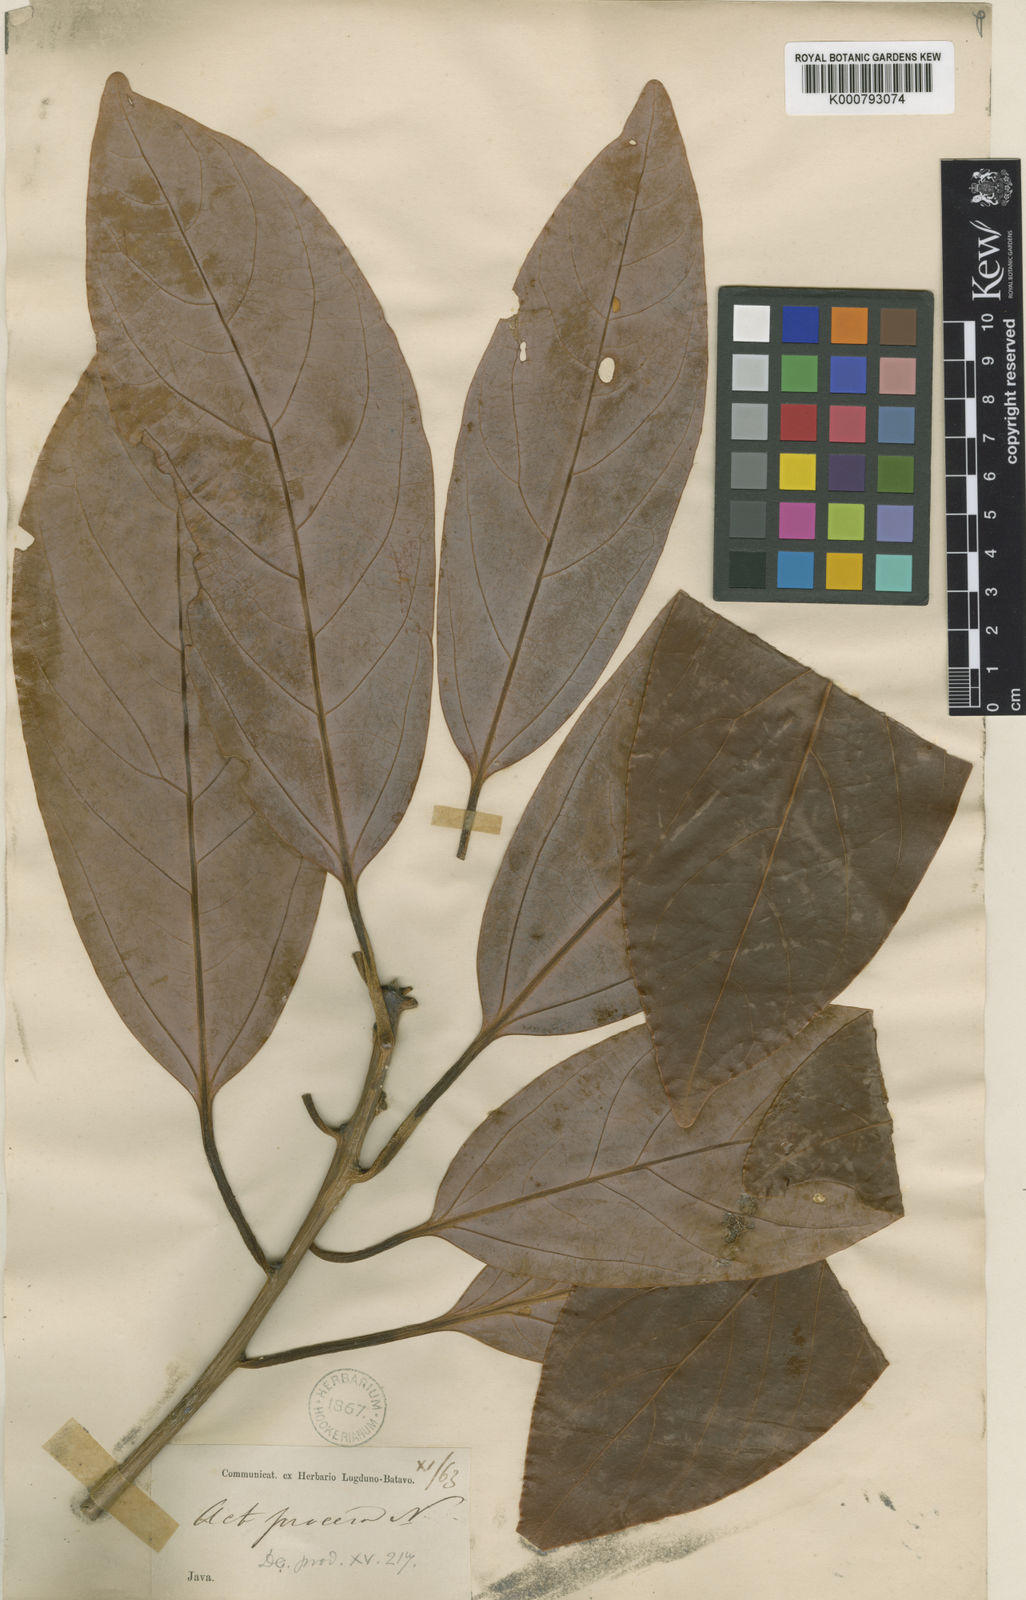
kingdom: Plantae
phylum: Tracheophyta
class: Magnoliopsida
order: Laurales
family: Lauraceae
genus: Actinodaphne
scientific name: Actinodaphne procera
